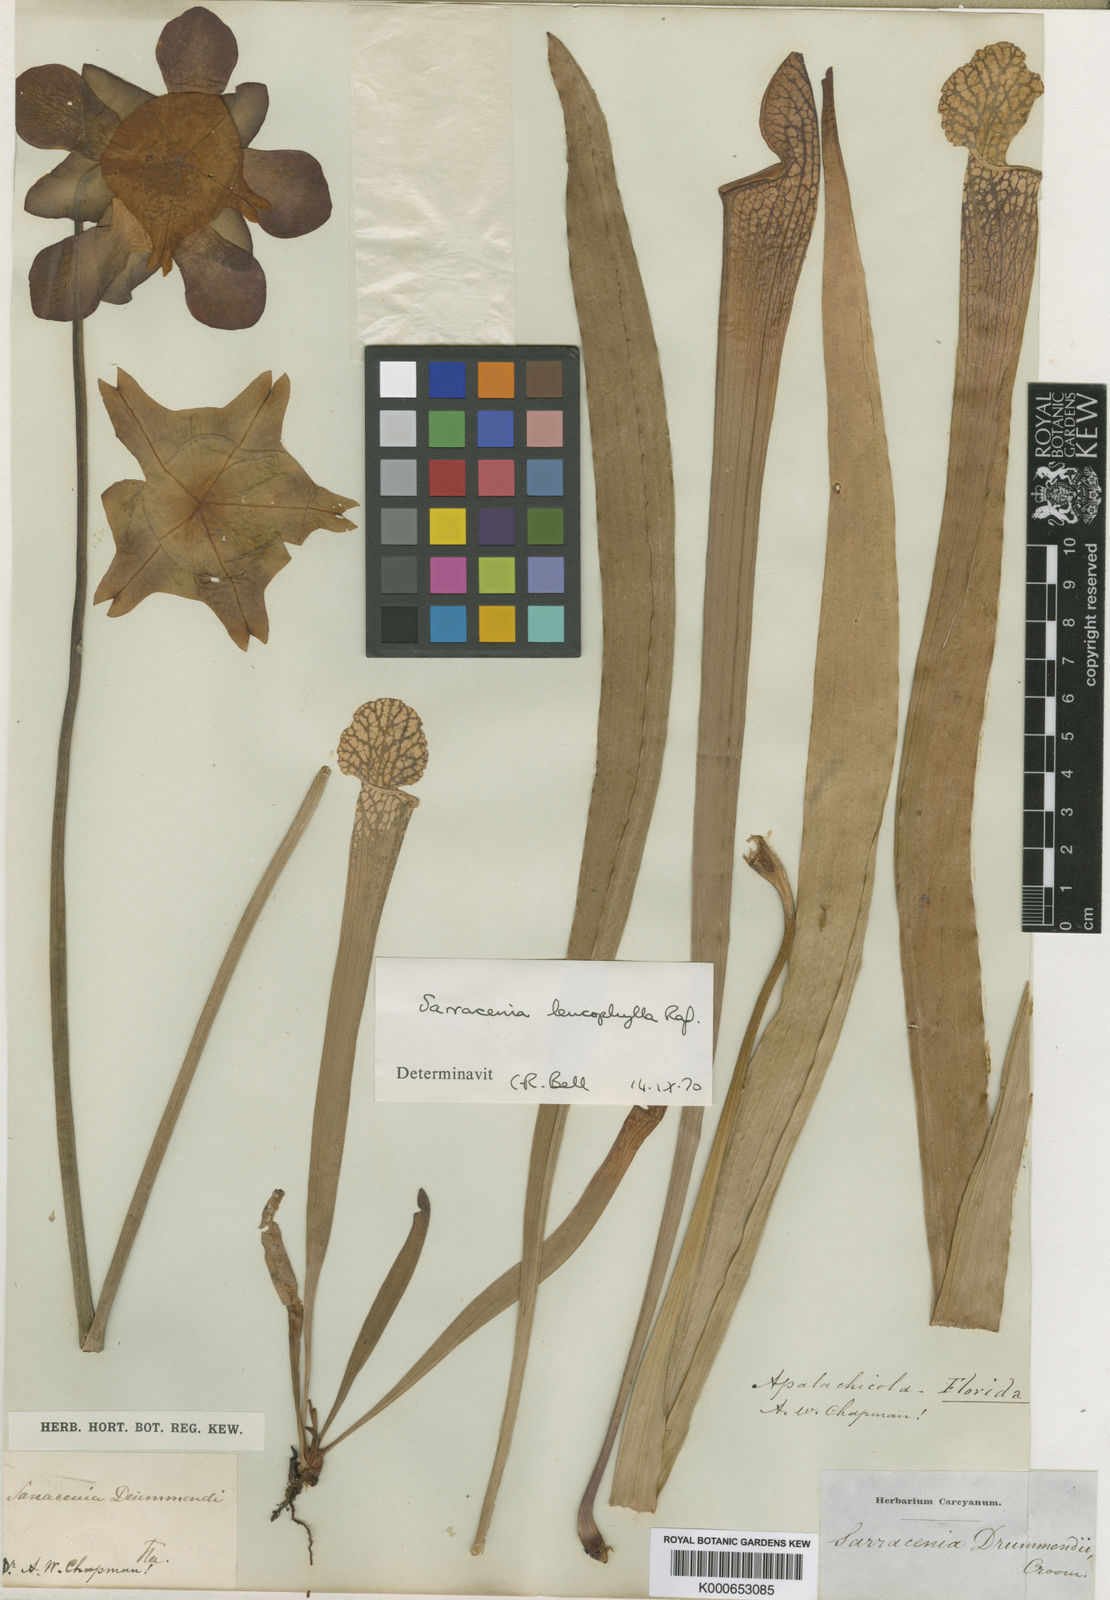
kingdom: Plantae
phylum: Tracheophyta
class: Magnoliopsida
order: Ericales
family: Sarraceniaceae
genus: Sarracenia
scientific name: Sarracenia leucophylla
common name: Purple trumpetleaf
